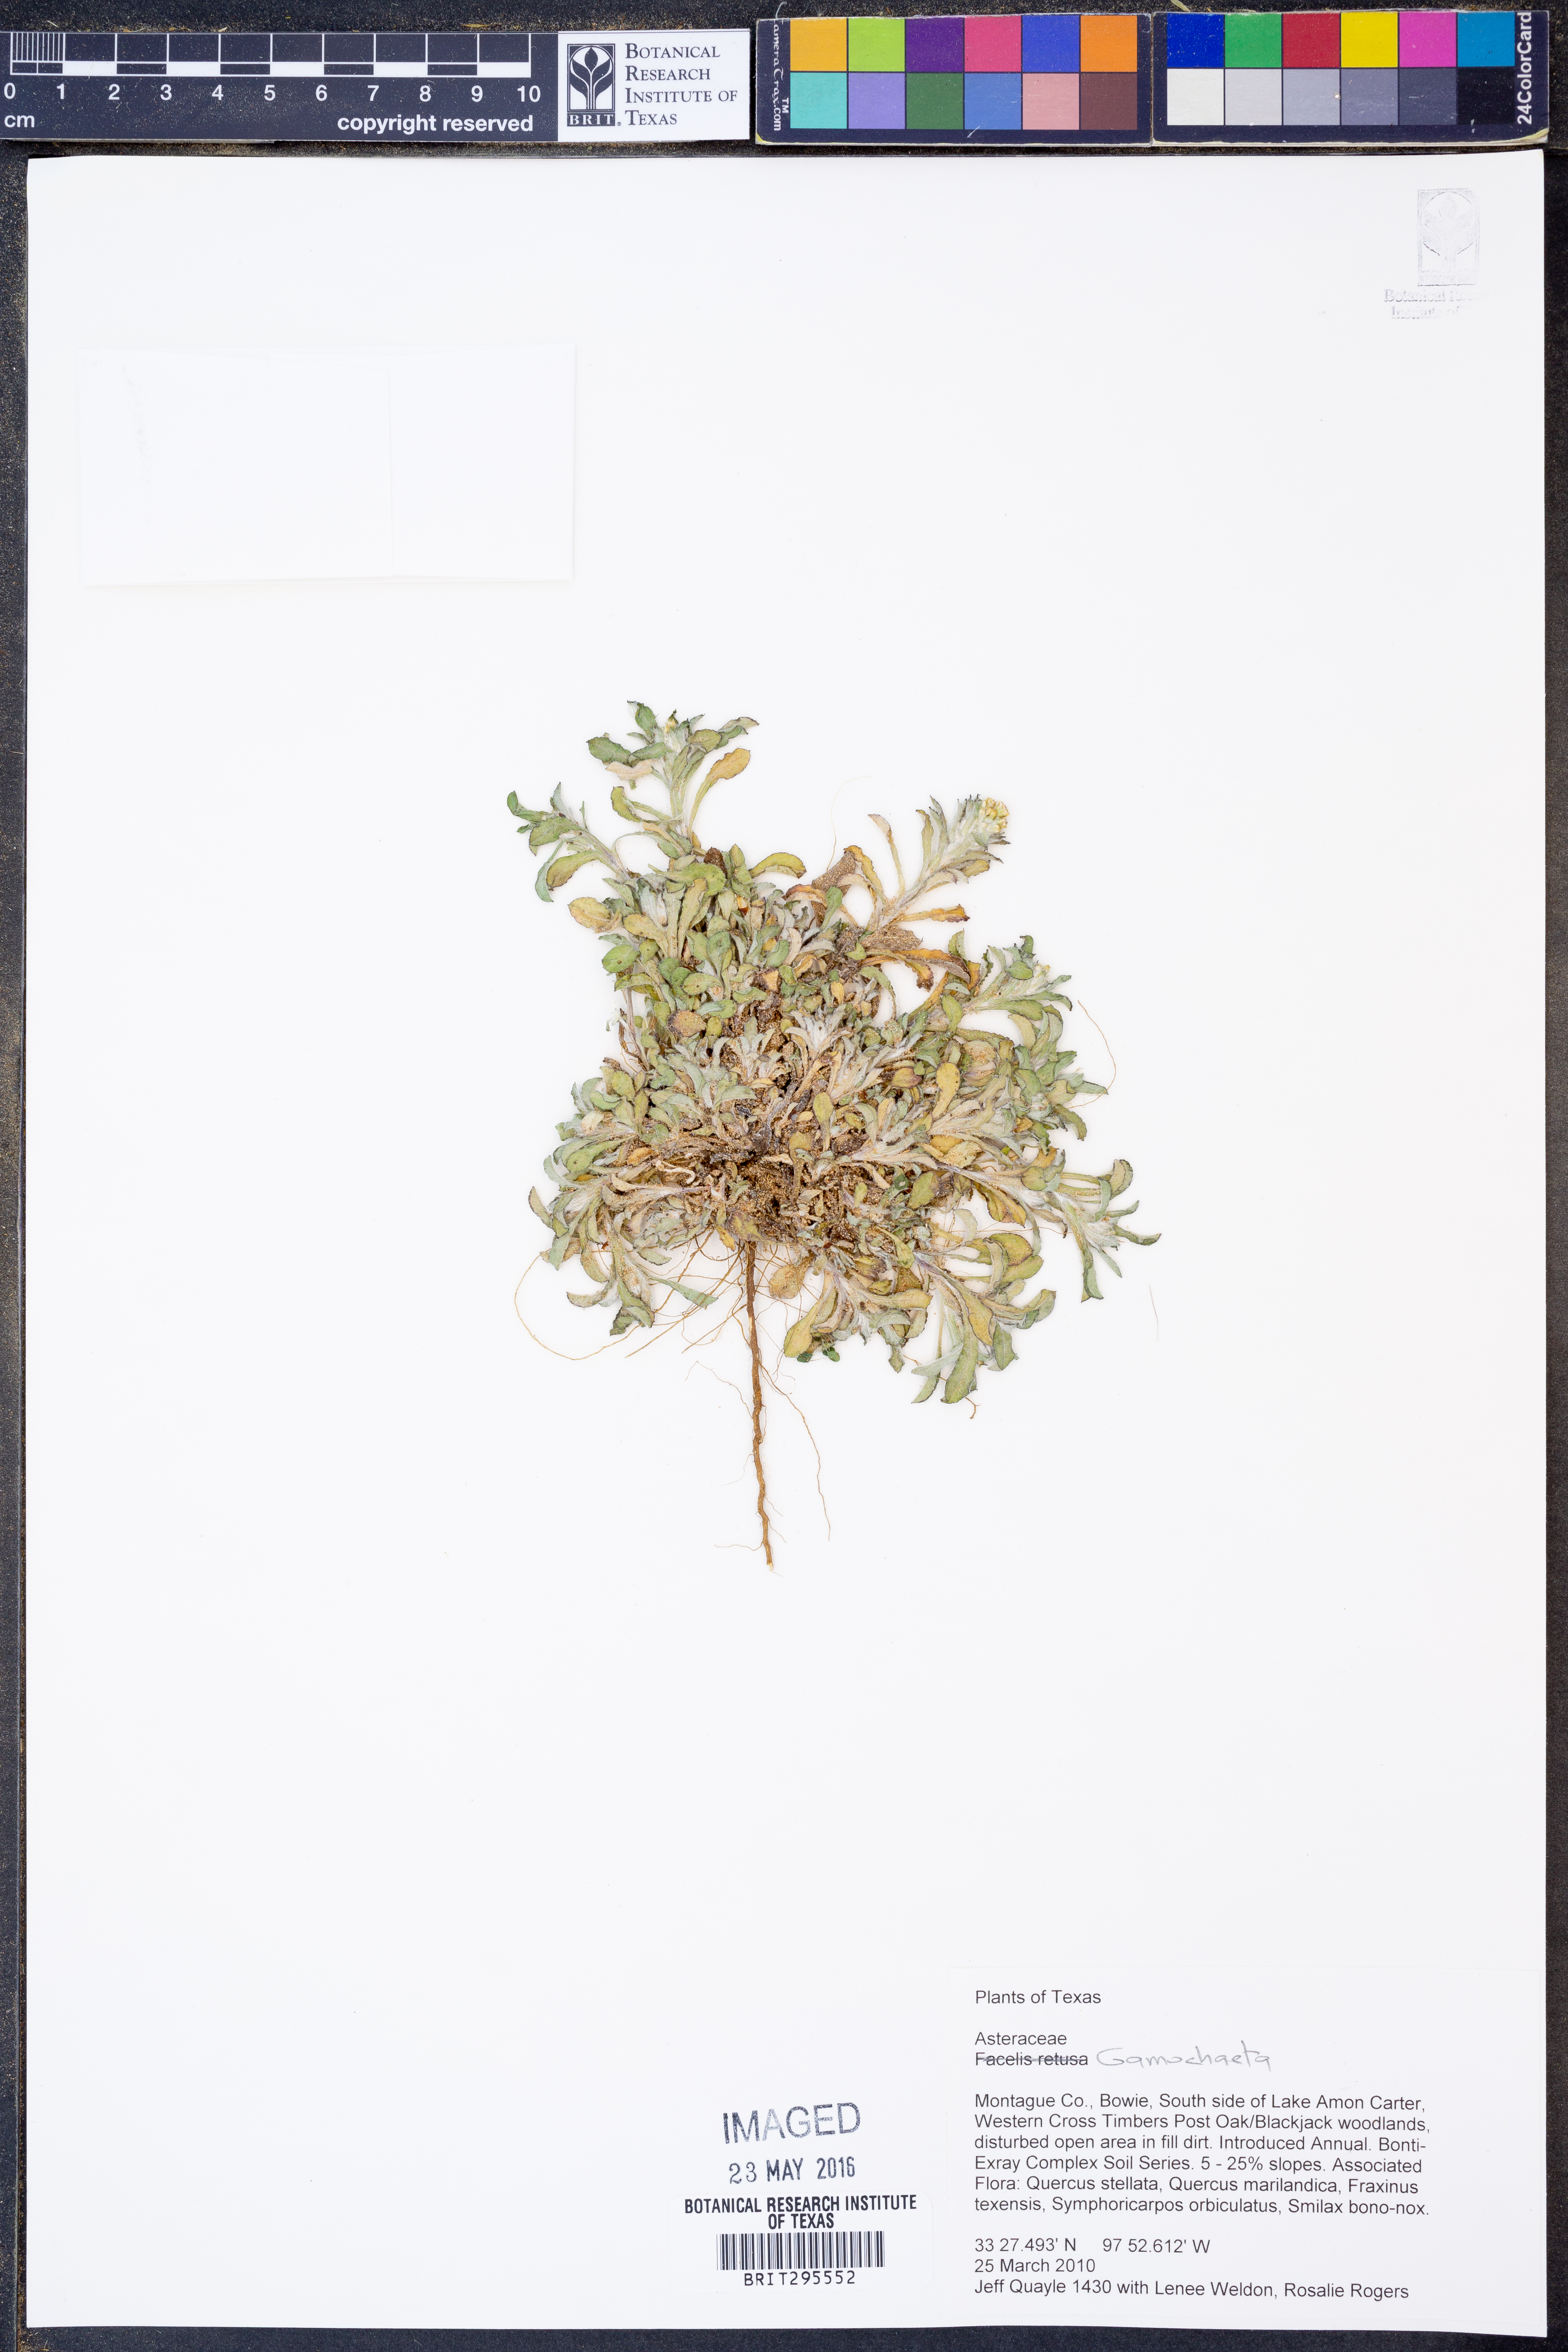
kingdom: Plantae
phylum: Tracheophyta
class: Magnoliopsida
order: Asterales
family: Asteraceae
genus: Gamochaeta
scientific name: Gamochaeta
